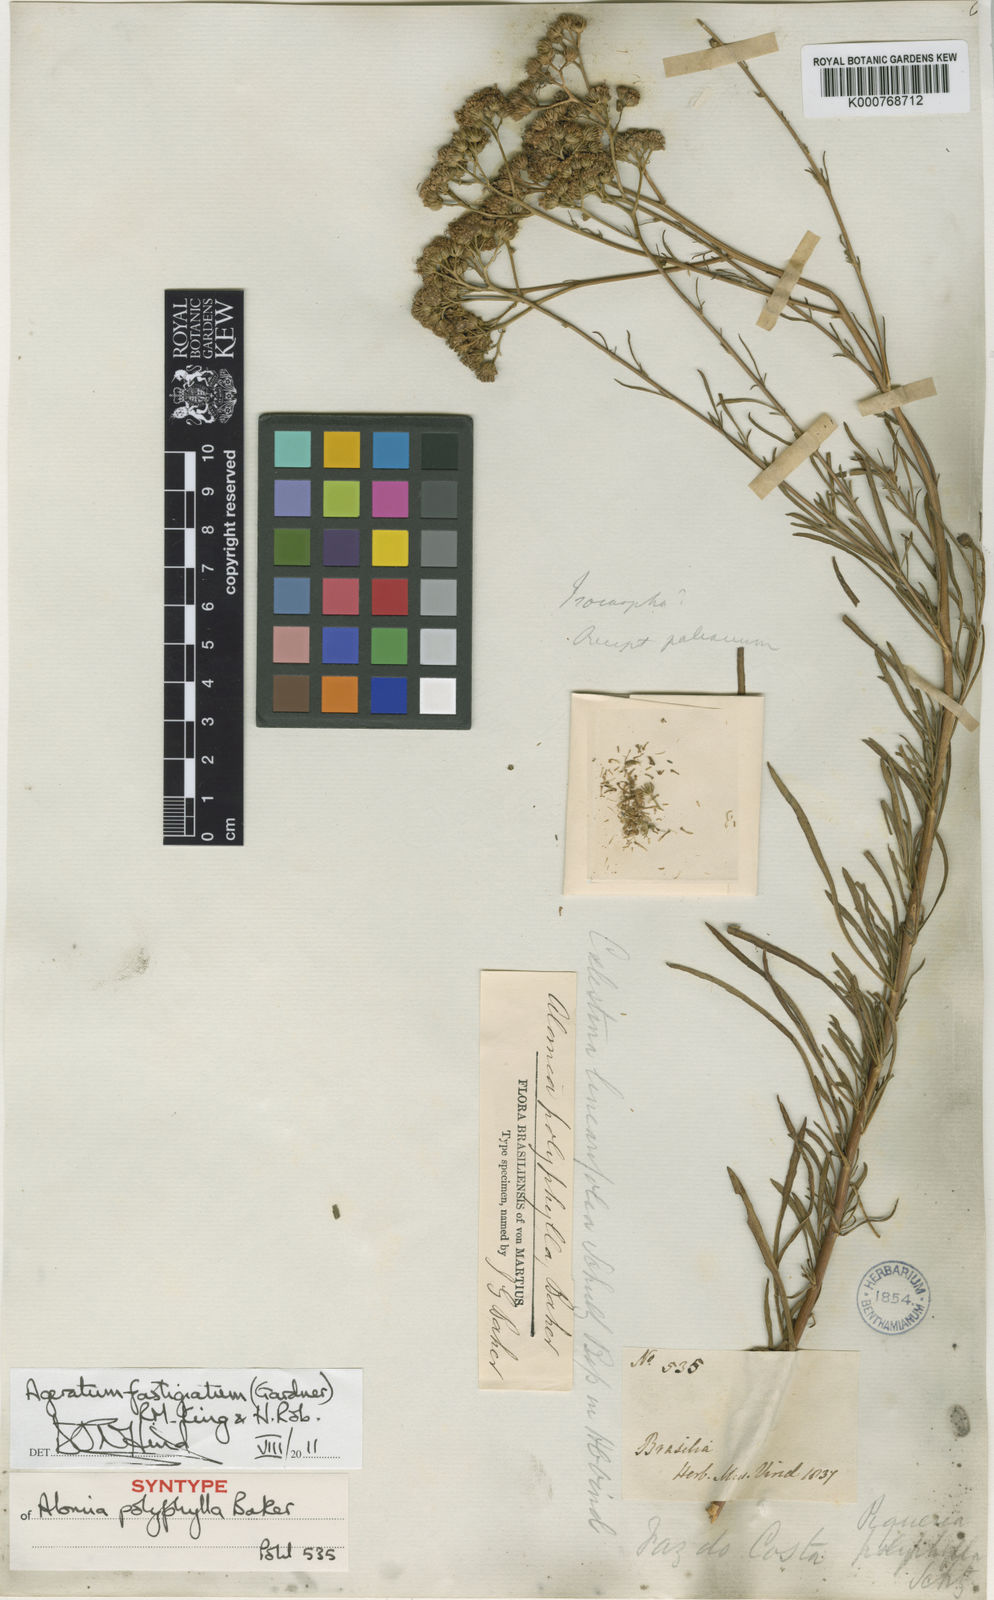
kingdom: Plantae
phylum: Tracheophyta
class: Magnoliopsida
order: Asterales
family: Asteraceae
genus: Ageratum
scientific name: Ageratum fastigiatum
